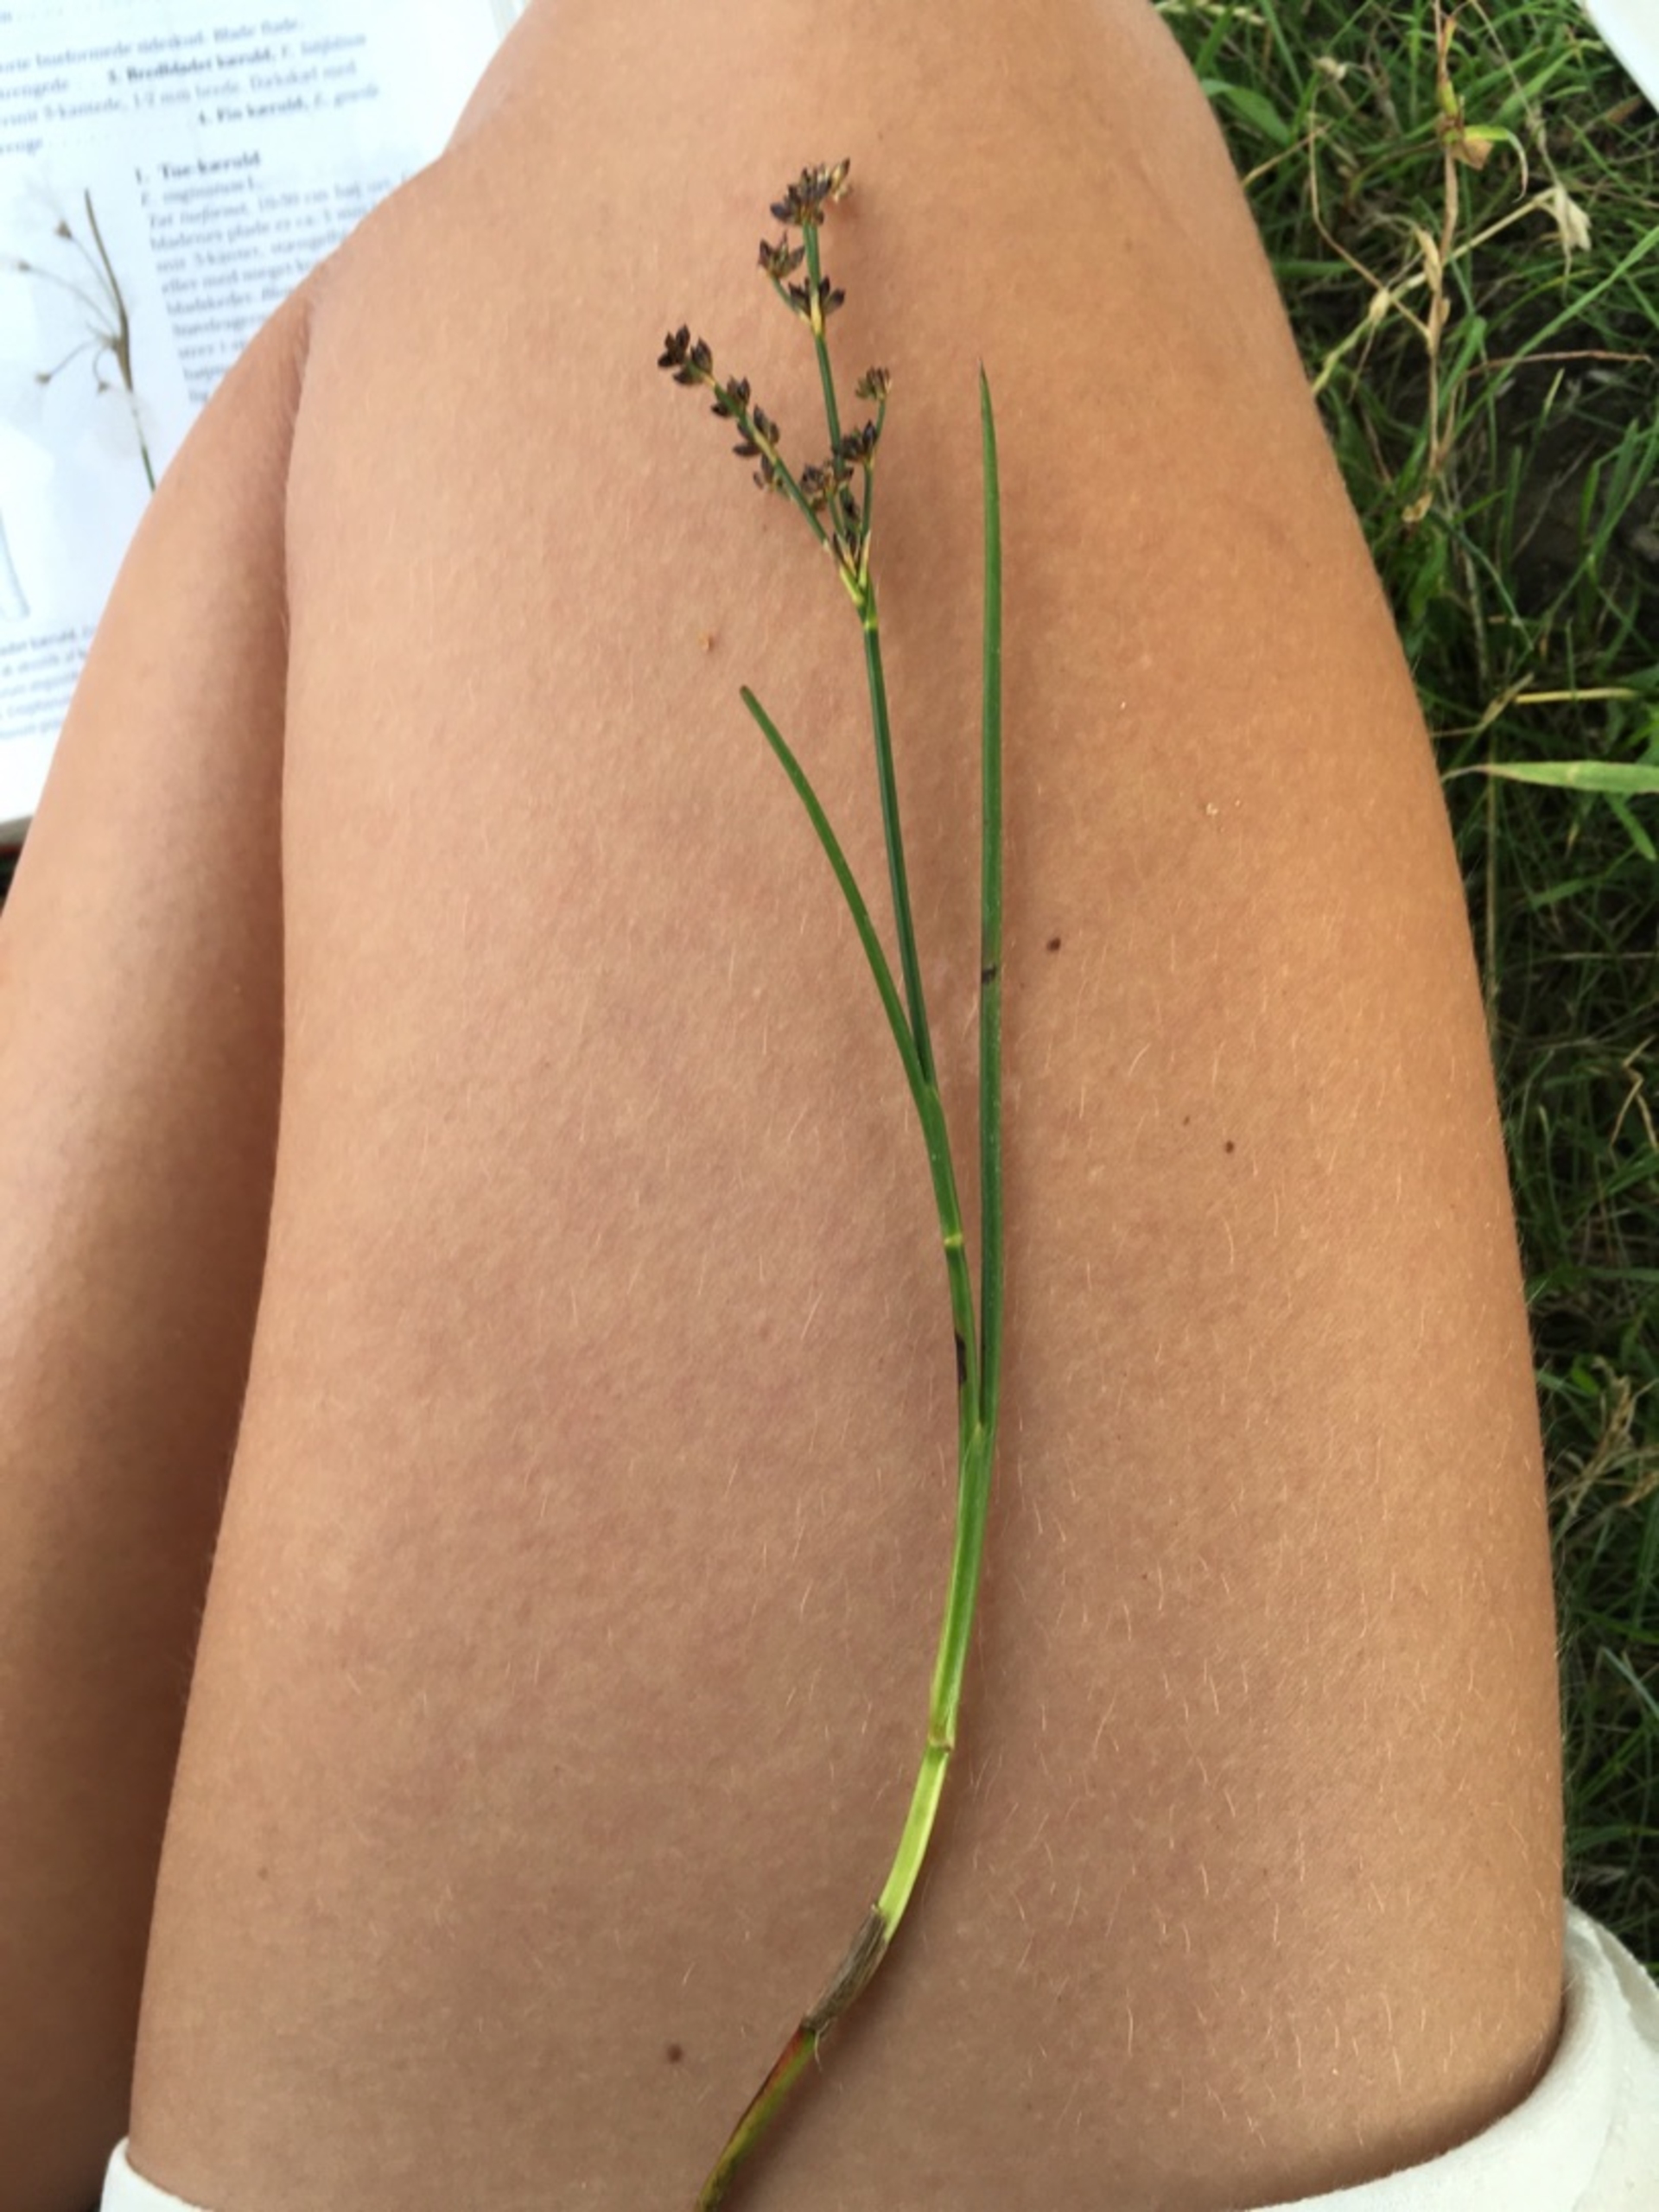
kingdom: Plantae
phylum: Tracheophyta
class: Liliopsida
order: Poales
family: Juncaceae
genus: Juncus
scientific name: Juncus articulatus
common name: Glanskapslet siv
